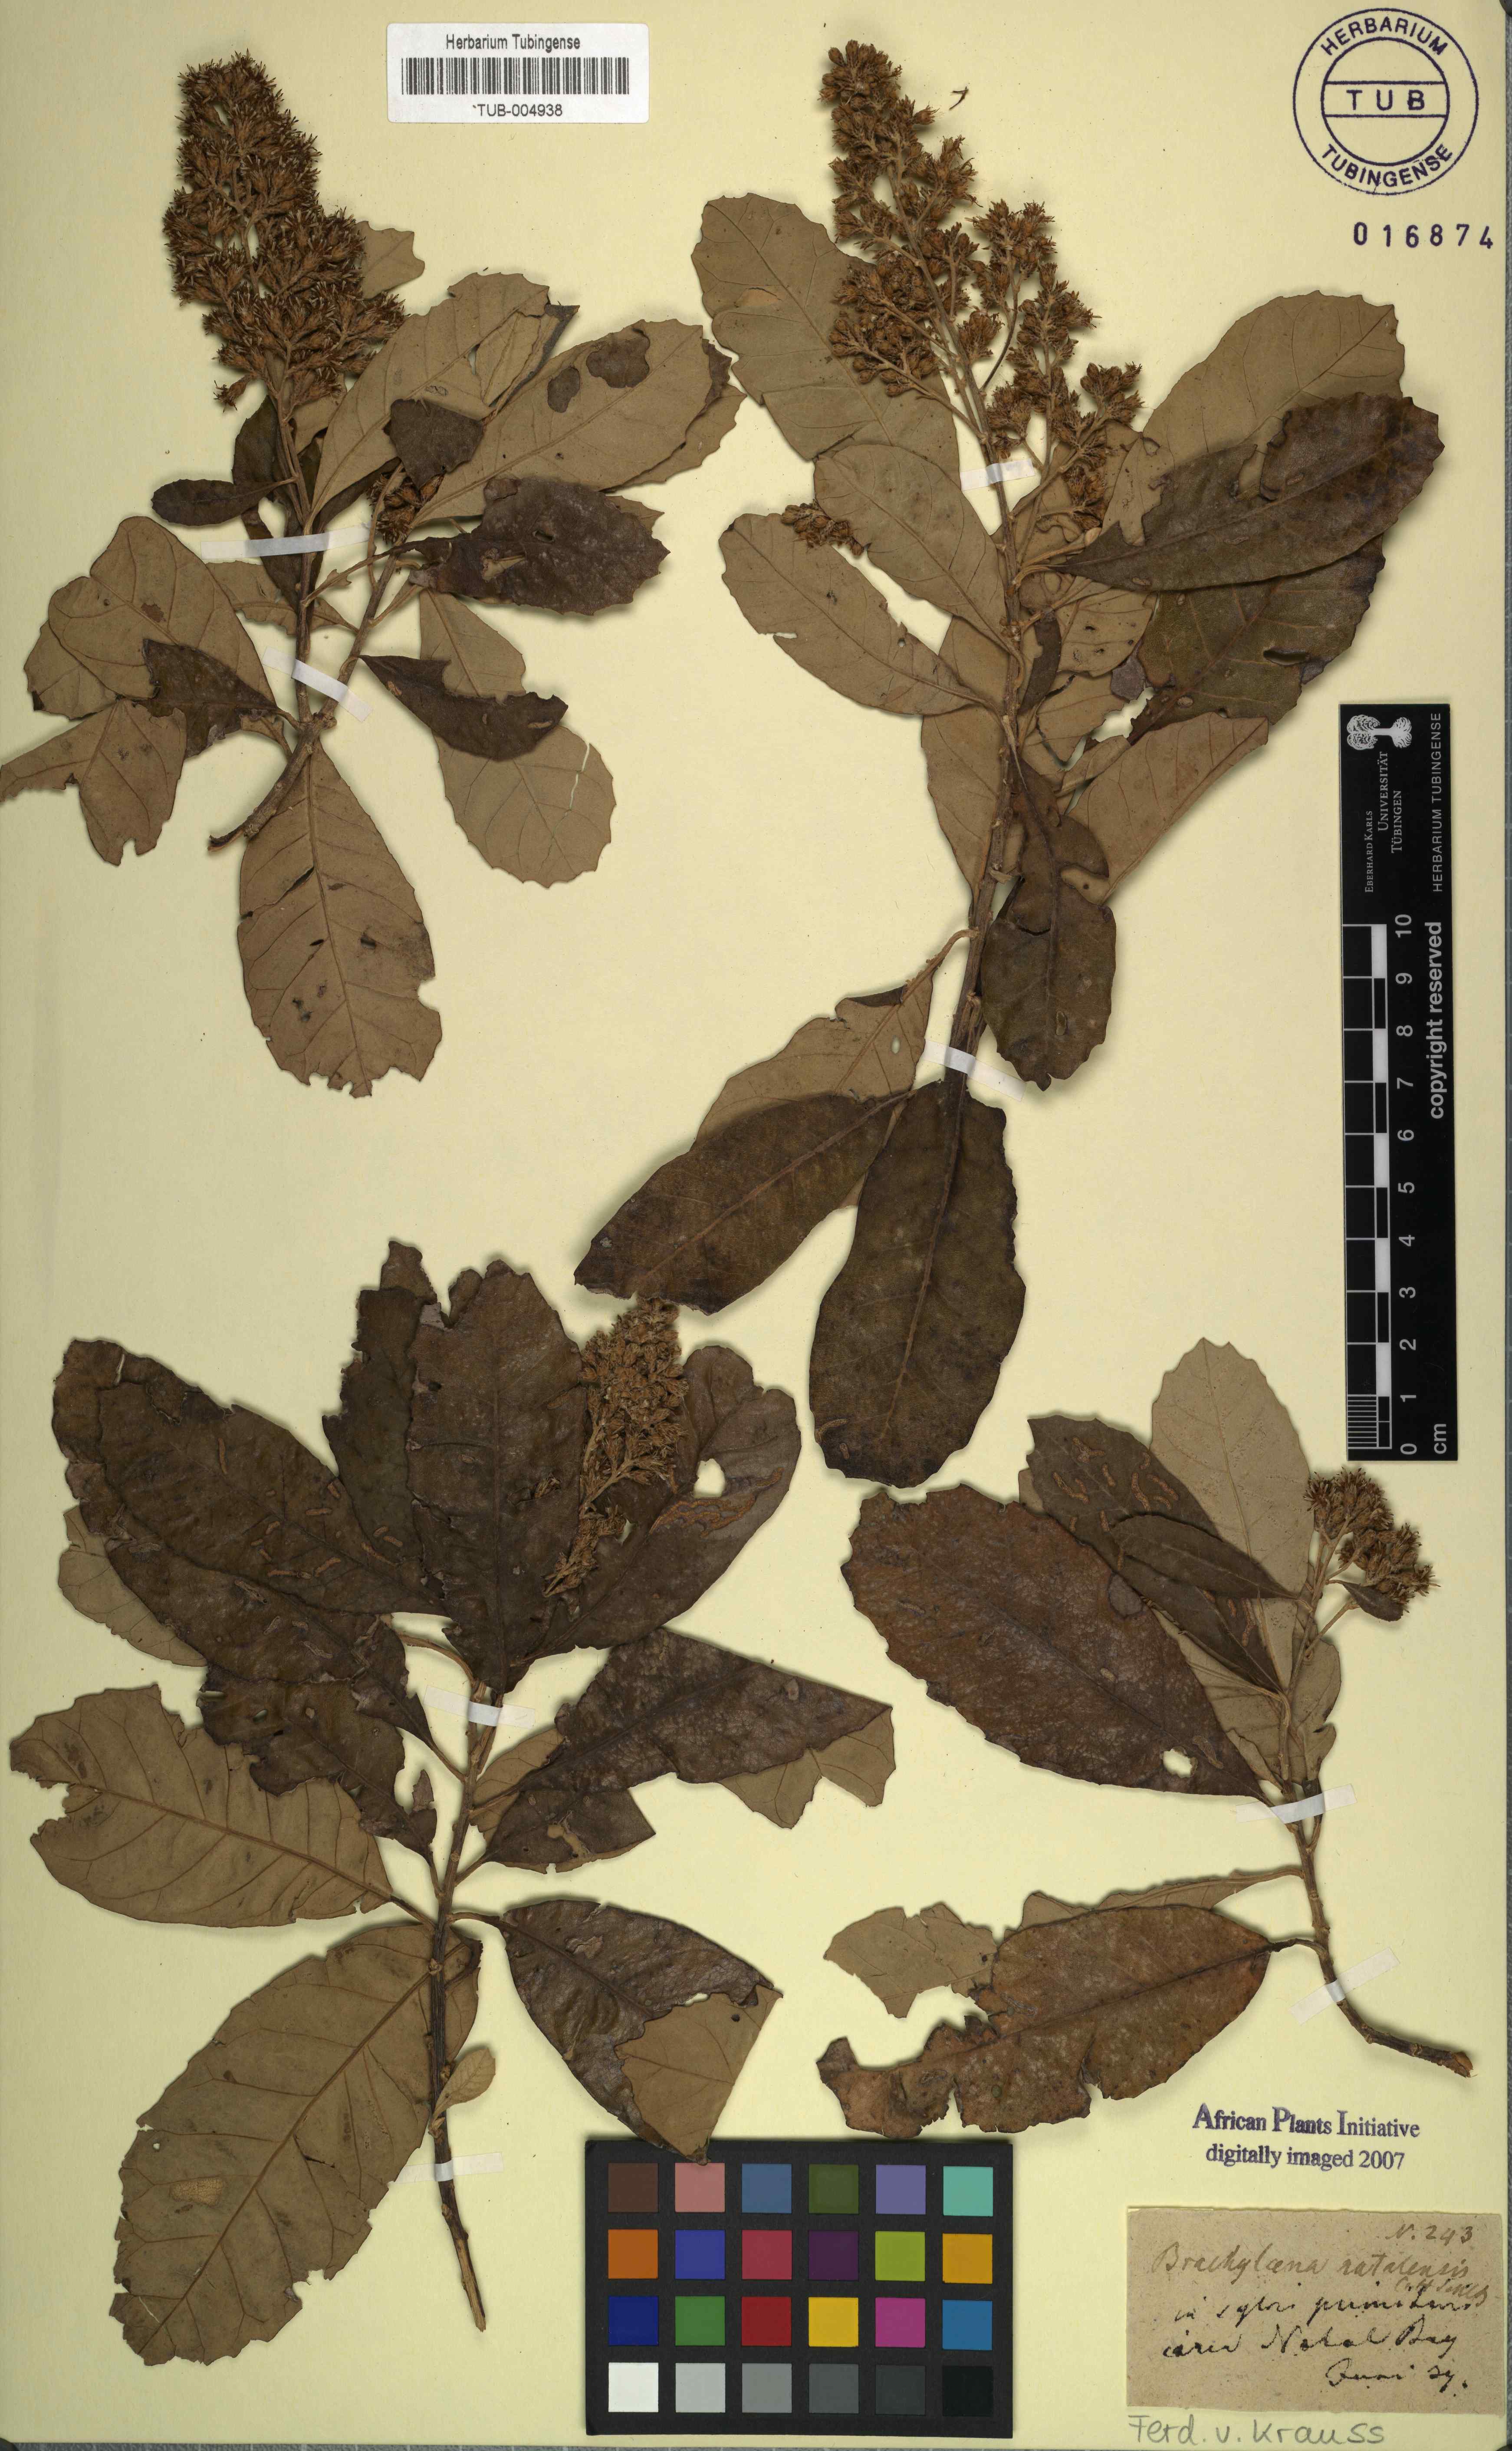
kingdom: Plantae
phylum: Tracheophyta
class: Magnoliopsida
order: Asterales
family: Asteraceae
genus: Brachylaena
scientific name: Brachylaena discolor
